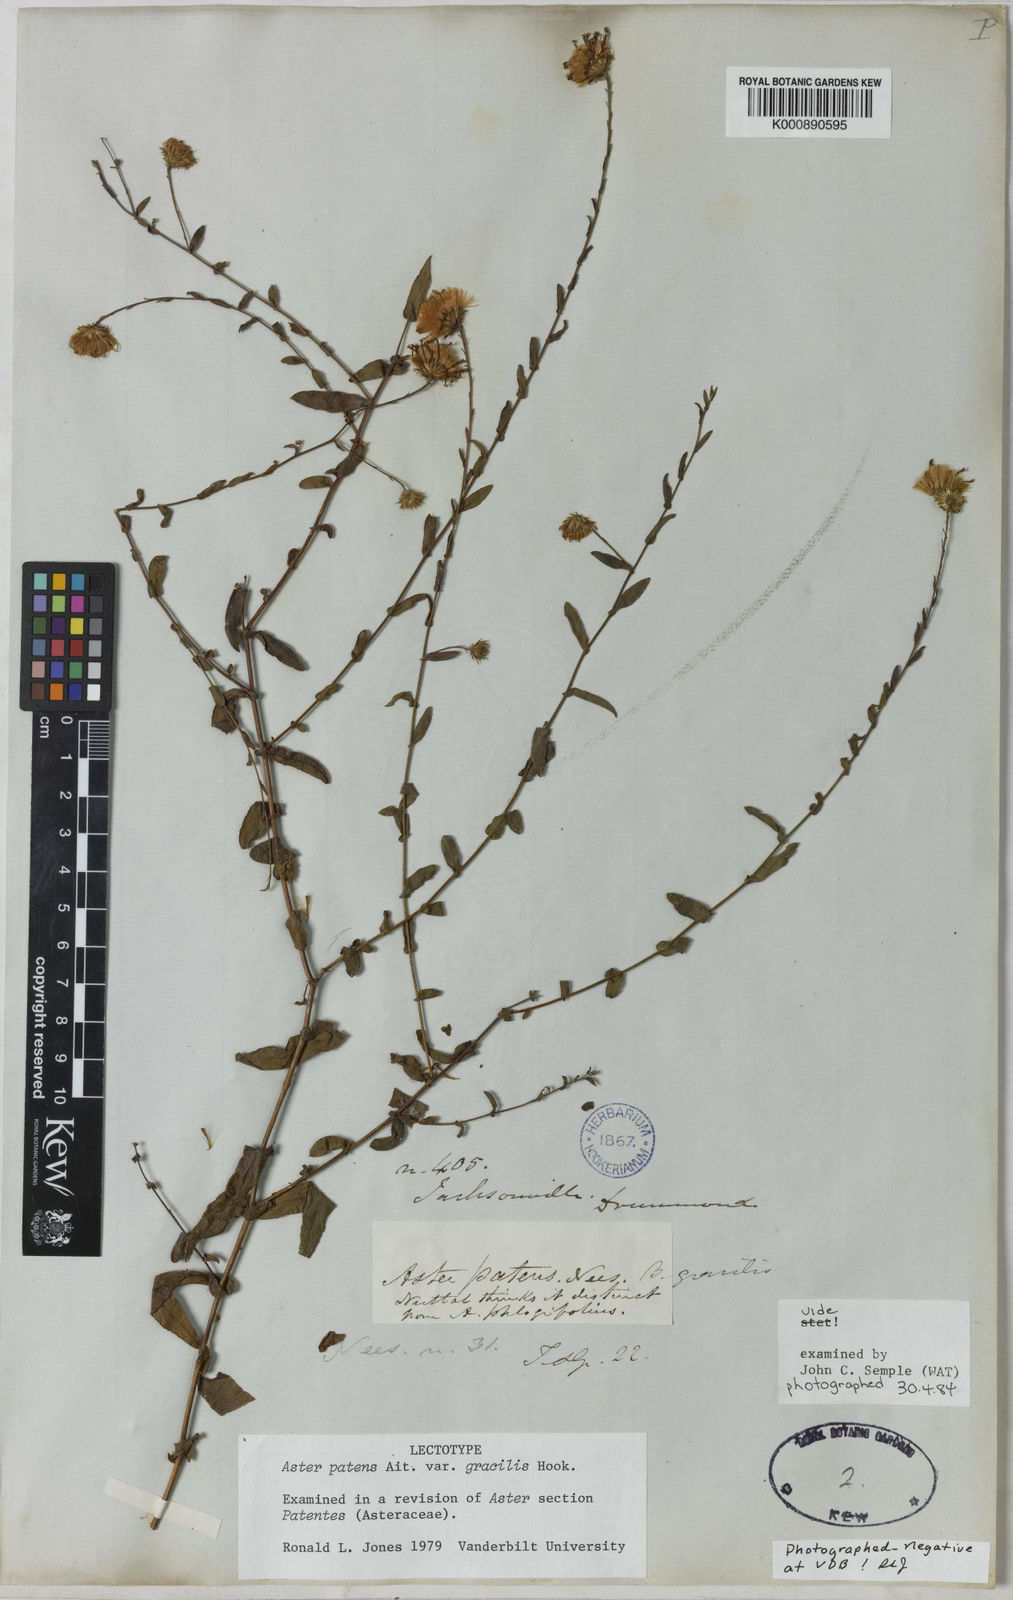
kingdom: Plantae
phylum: Tracheophyta
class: Magnoliopsida
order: Asterales
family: Asteraceae
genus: Symphyotrichum
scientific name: Symphyotrichum patens
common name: Late purple aster
